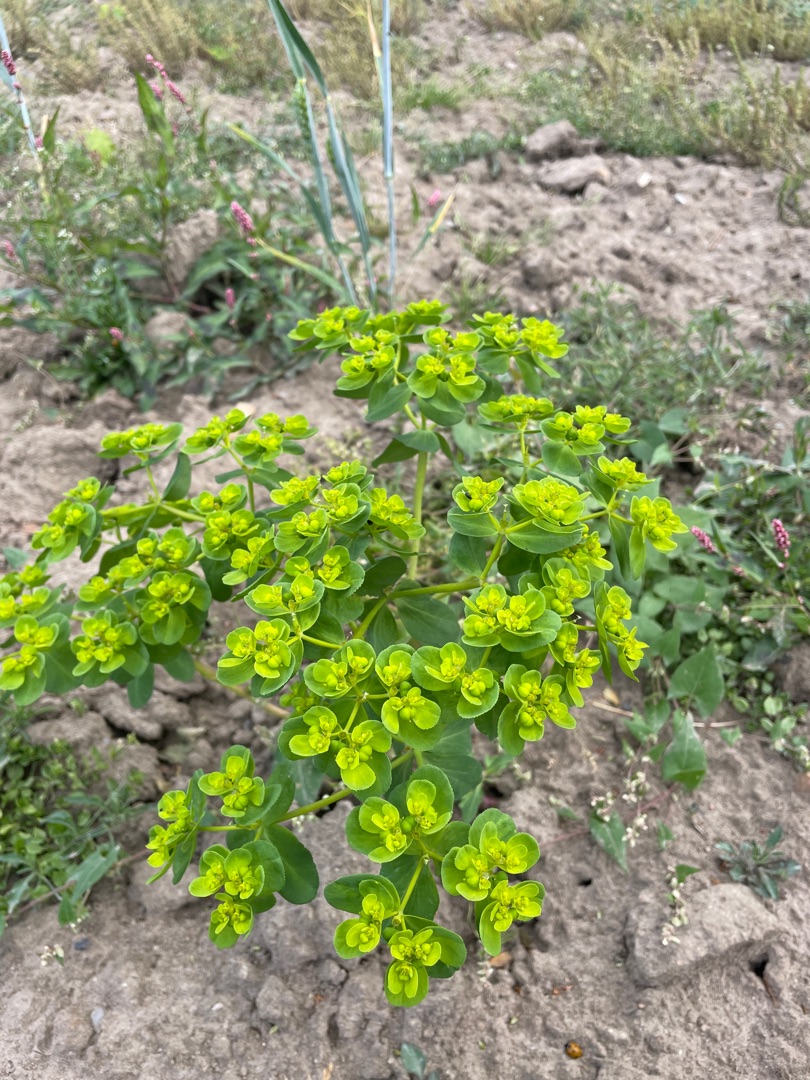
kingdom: Plantae
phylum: Tracheophyta
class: Magnoliopsida
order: Malpighiales
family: Euphorbiaceae
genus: Euphorbia
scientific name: Euphorbia helioscopia
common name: Skærm-vortemælk
